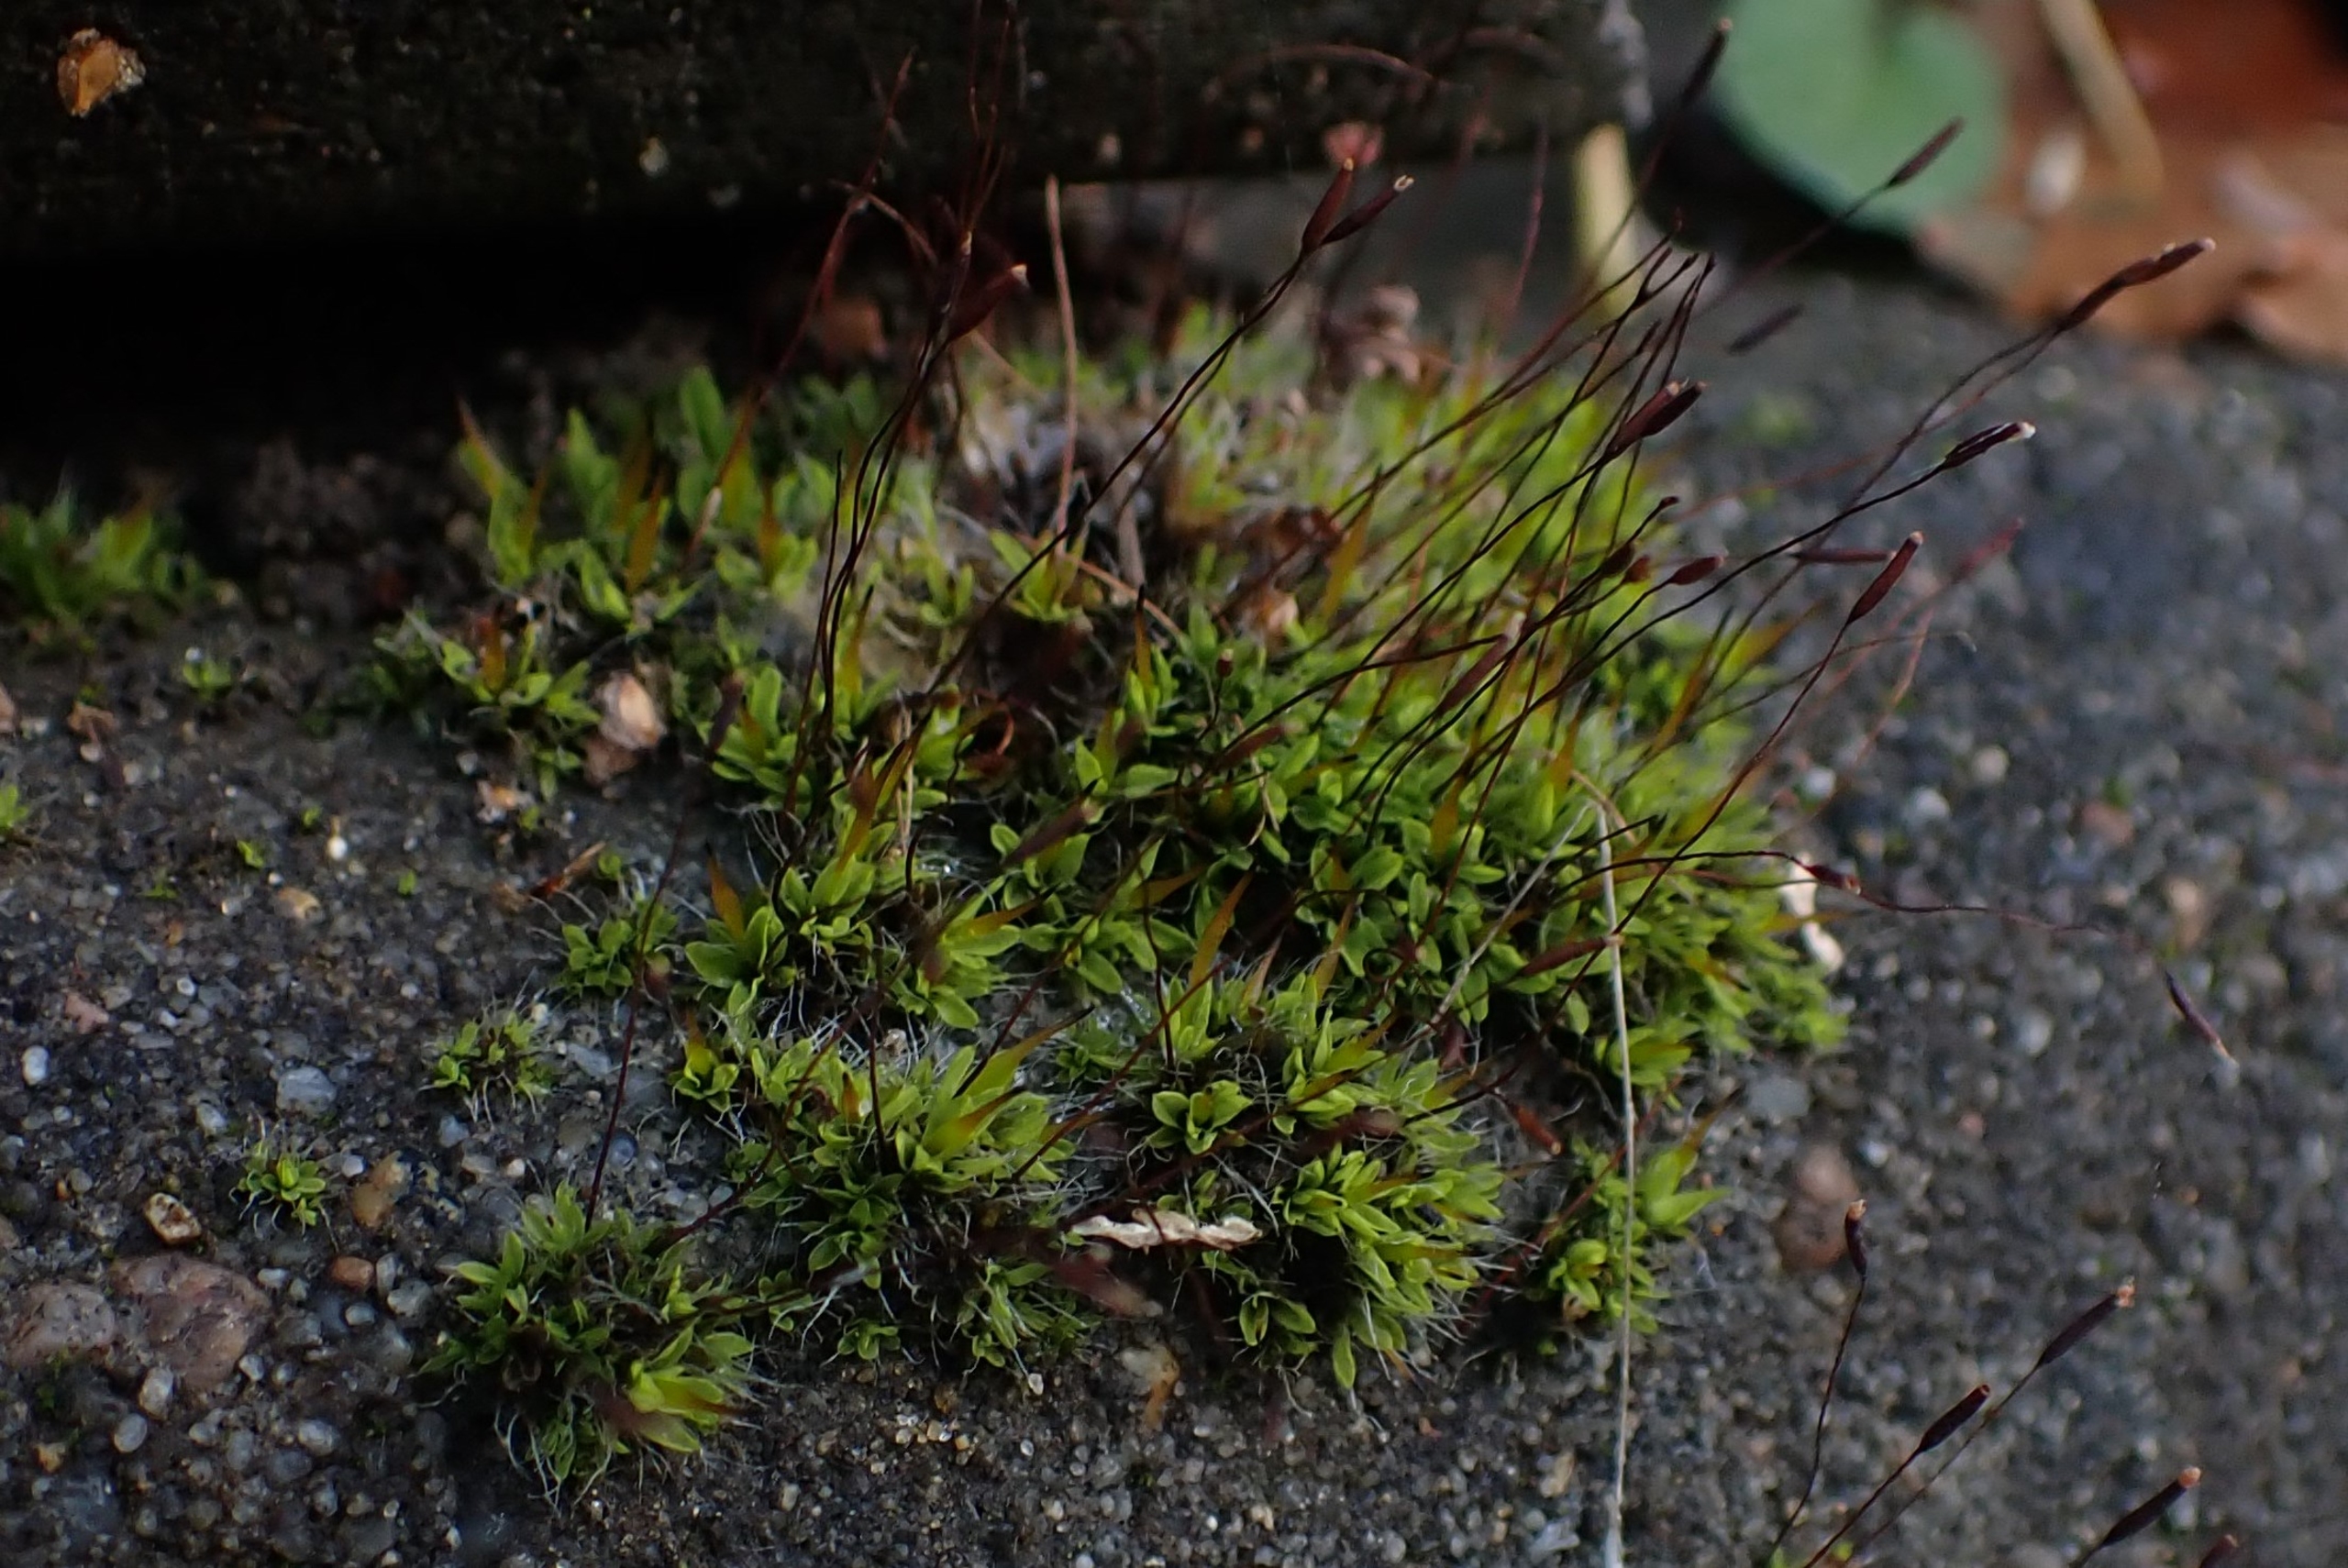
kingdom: Plantae
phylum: Bryophyta
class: Bryopsida
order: Pottiales
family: Pottiaceae
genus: Tortula
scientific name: Tortula muralis
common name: Mur-snotand
